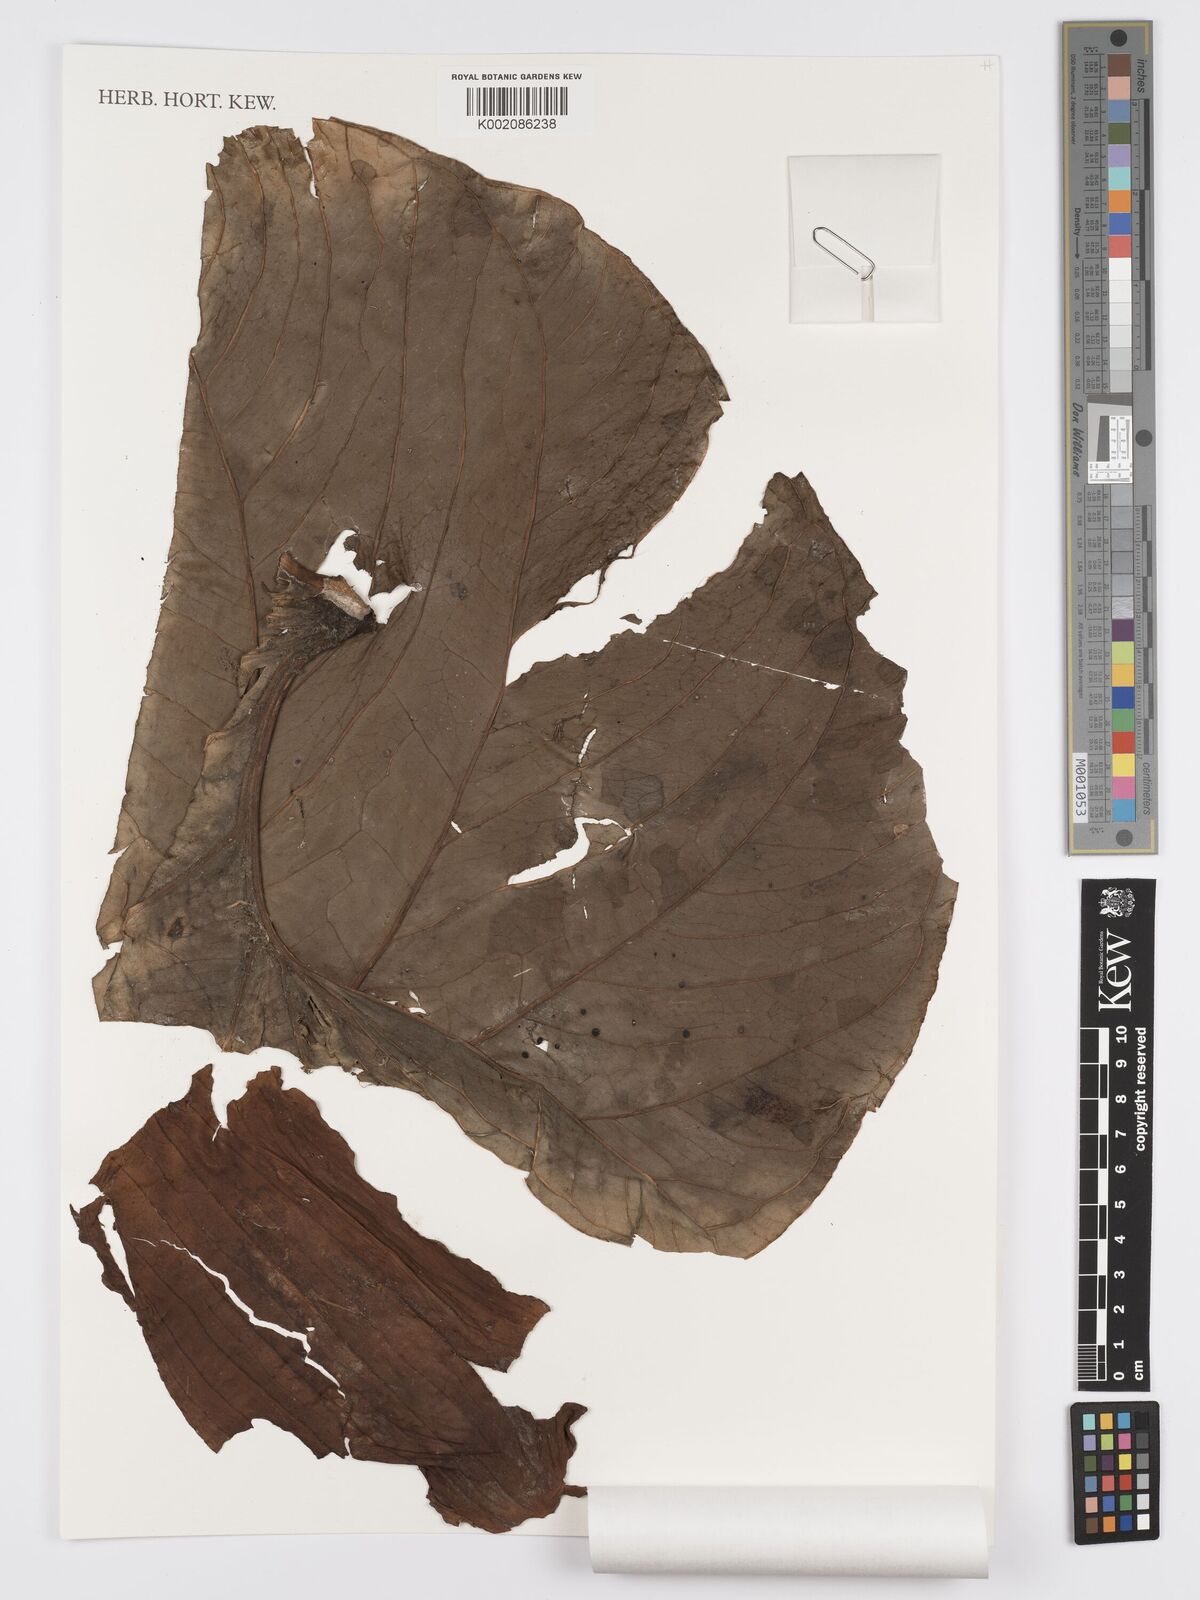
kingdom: Plantae
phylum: Tracheophyta
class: Liliopsida
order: Alismatales
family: Araceae
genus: Anthurium
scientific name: Anthurium gualeanum
